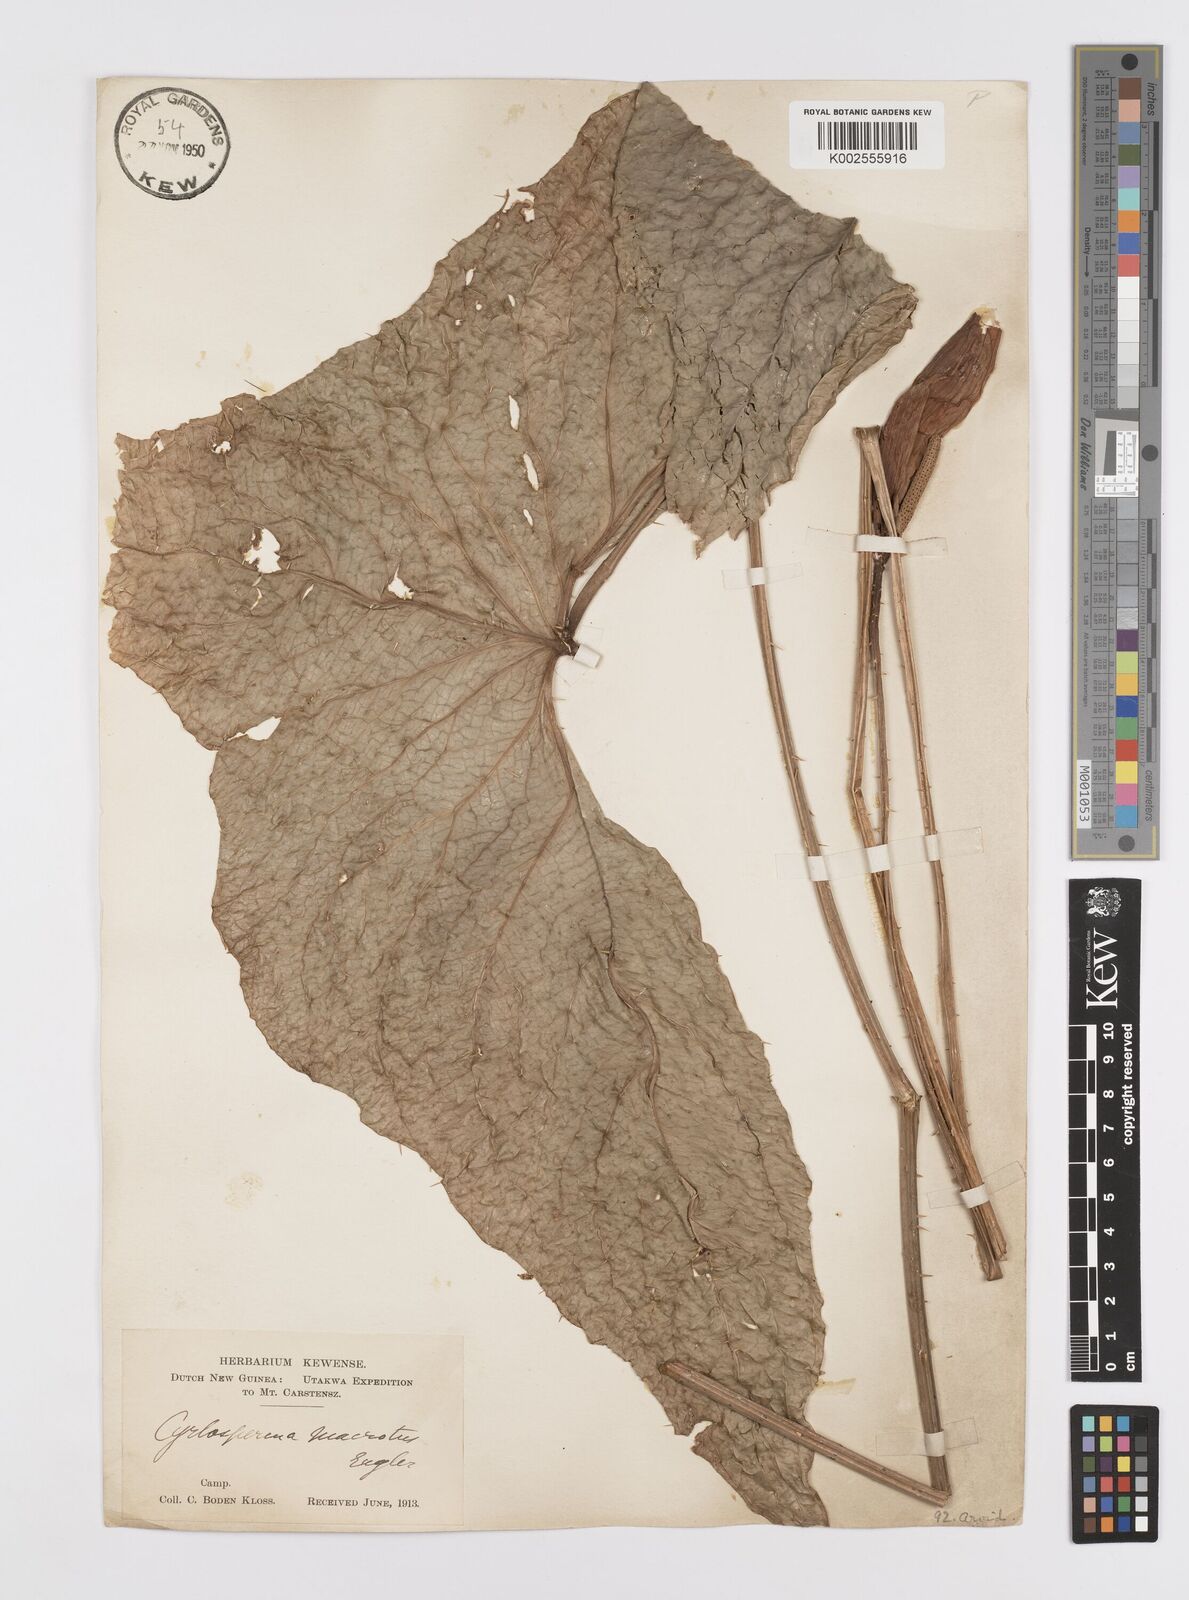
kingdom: Plantae
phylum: Tracheophyta
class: Liliopsida
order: Alismatales
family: Araceae
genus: Cyrtosperma
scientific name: Cyrtosperma macrotum
